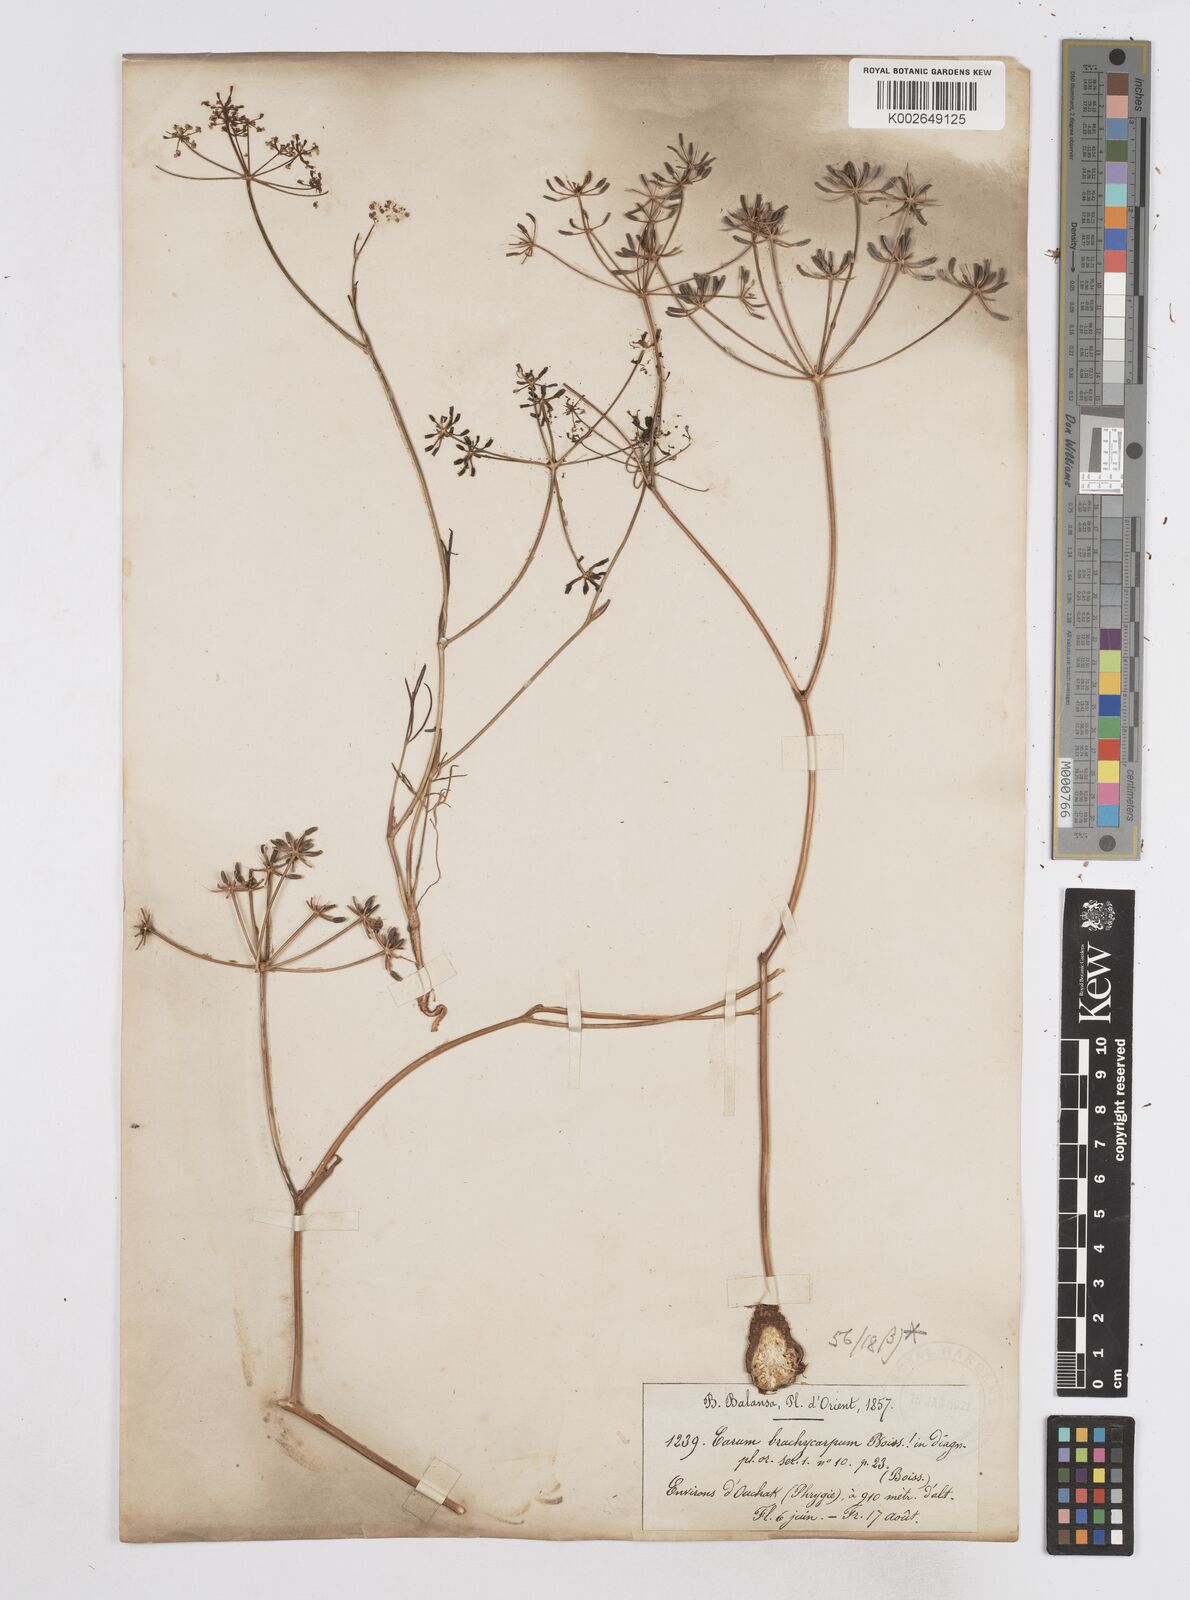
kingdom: Plantae
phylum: Tracheophyta
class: Magnoliopsida
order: Apiales
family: Apiaceae
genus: Bunium
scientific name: Bunium ferulaceum
